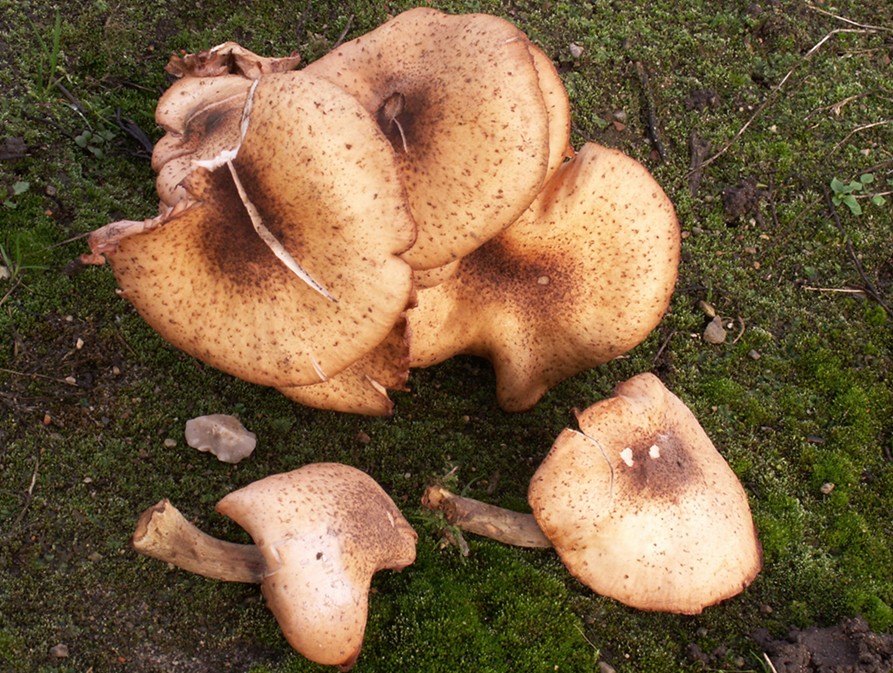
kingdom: Fungi
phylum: Basidiomycota
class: Agaricomycetes
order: Agaricales
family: Physalacriaceae
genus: Armillaria
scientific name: Armillaria cepistipes
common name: knoldfodet honningsvamp
